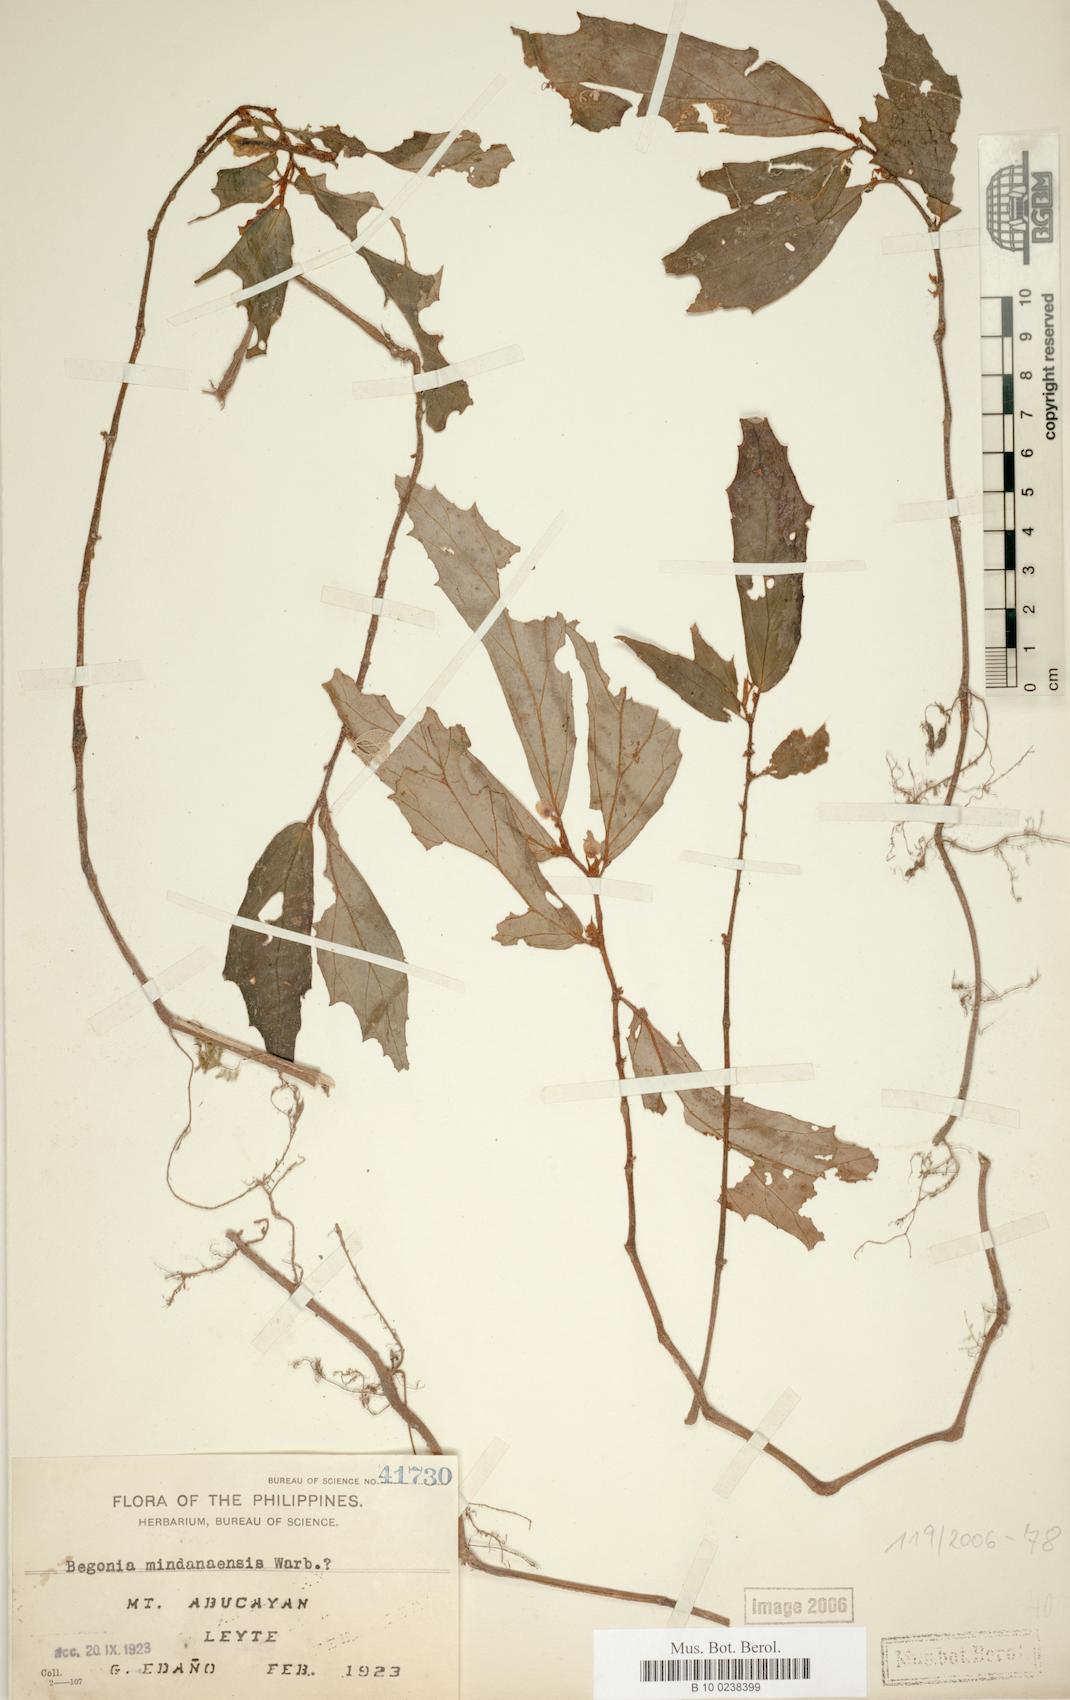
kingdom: Plantae
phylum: Tracheophyta
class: Magnoliopsida
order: Cucurbitales
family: Begoniaceae
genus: Begonia
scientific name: Begonia mindanaensis
